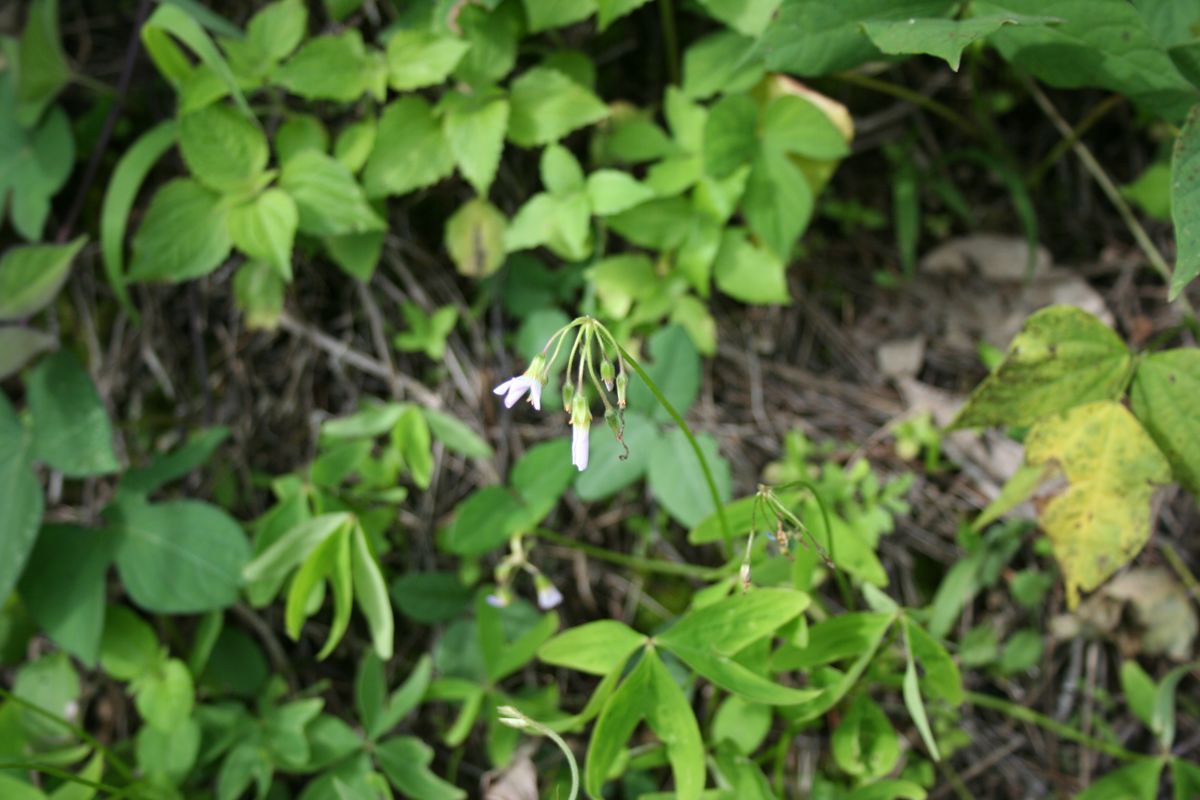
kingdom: Plantae
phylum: Tracheophyta
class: Magnoliopsida
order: Oxalidales
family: Oxalidaceae
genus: Oxalis
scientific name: Oxalis latifolia
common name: Garden pink-sorrel
